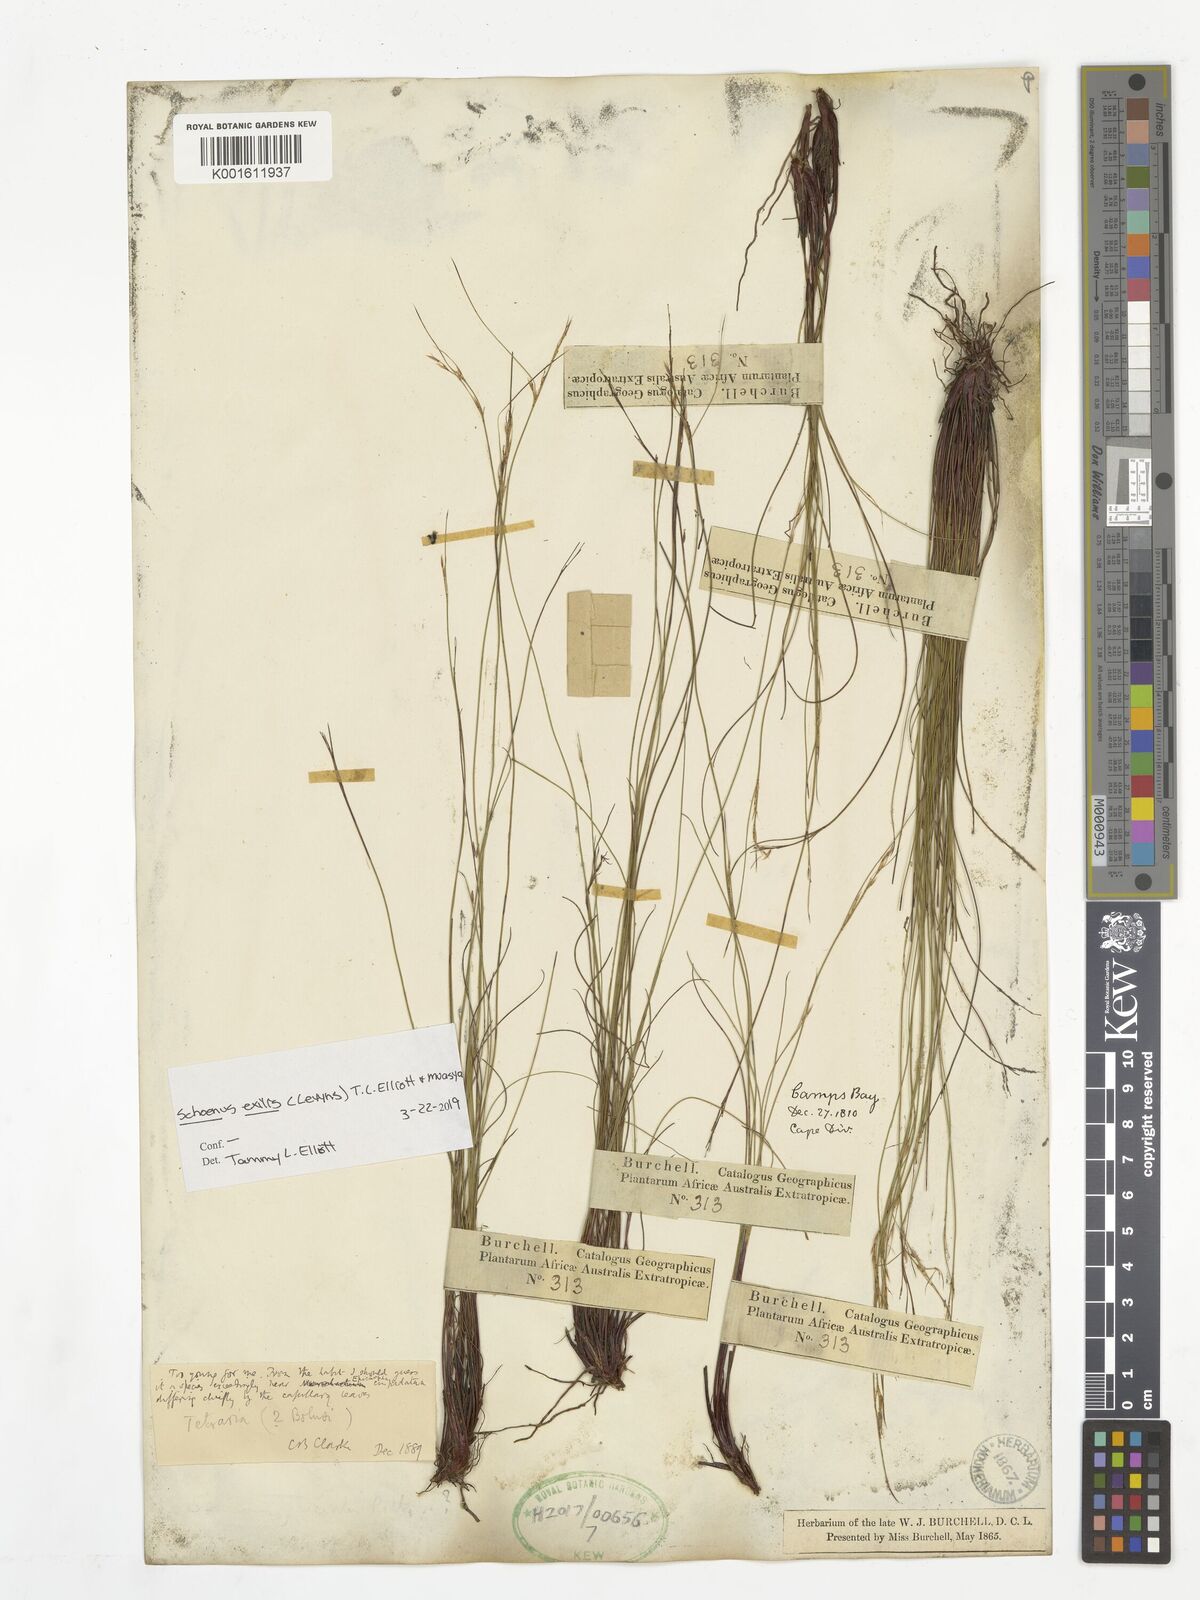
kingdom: Plantae
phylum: Tracheophyta
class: Liliopsida
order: Poales
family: Cyperaceae
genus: Schoenus
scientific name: Schoenus exilis
